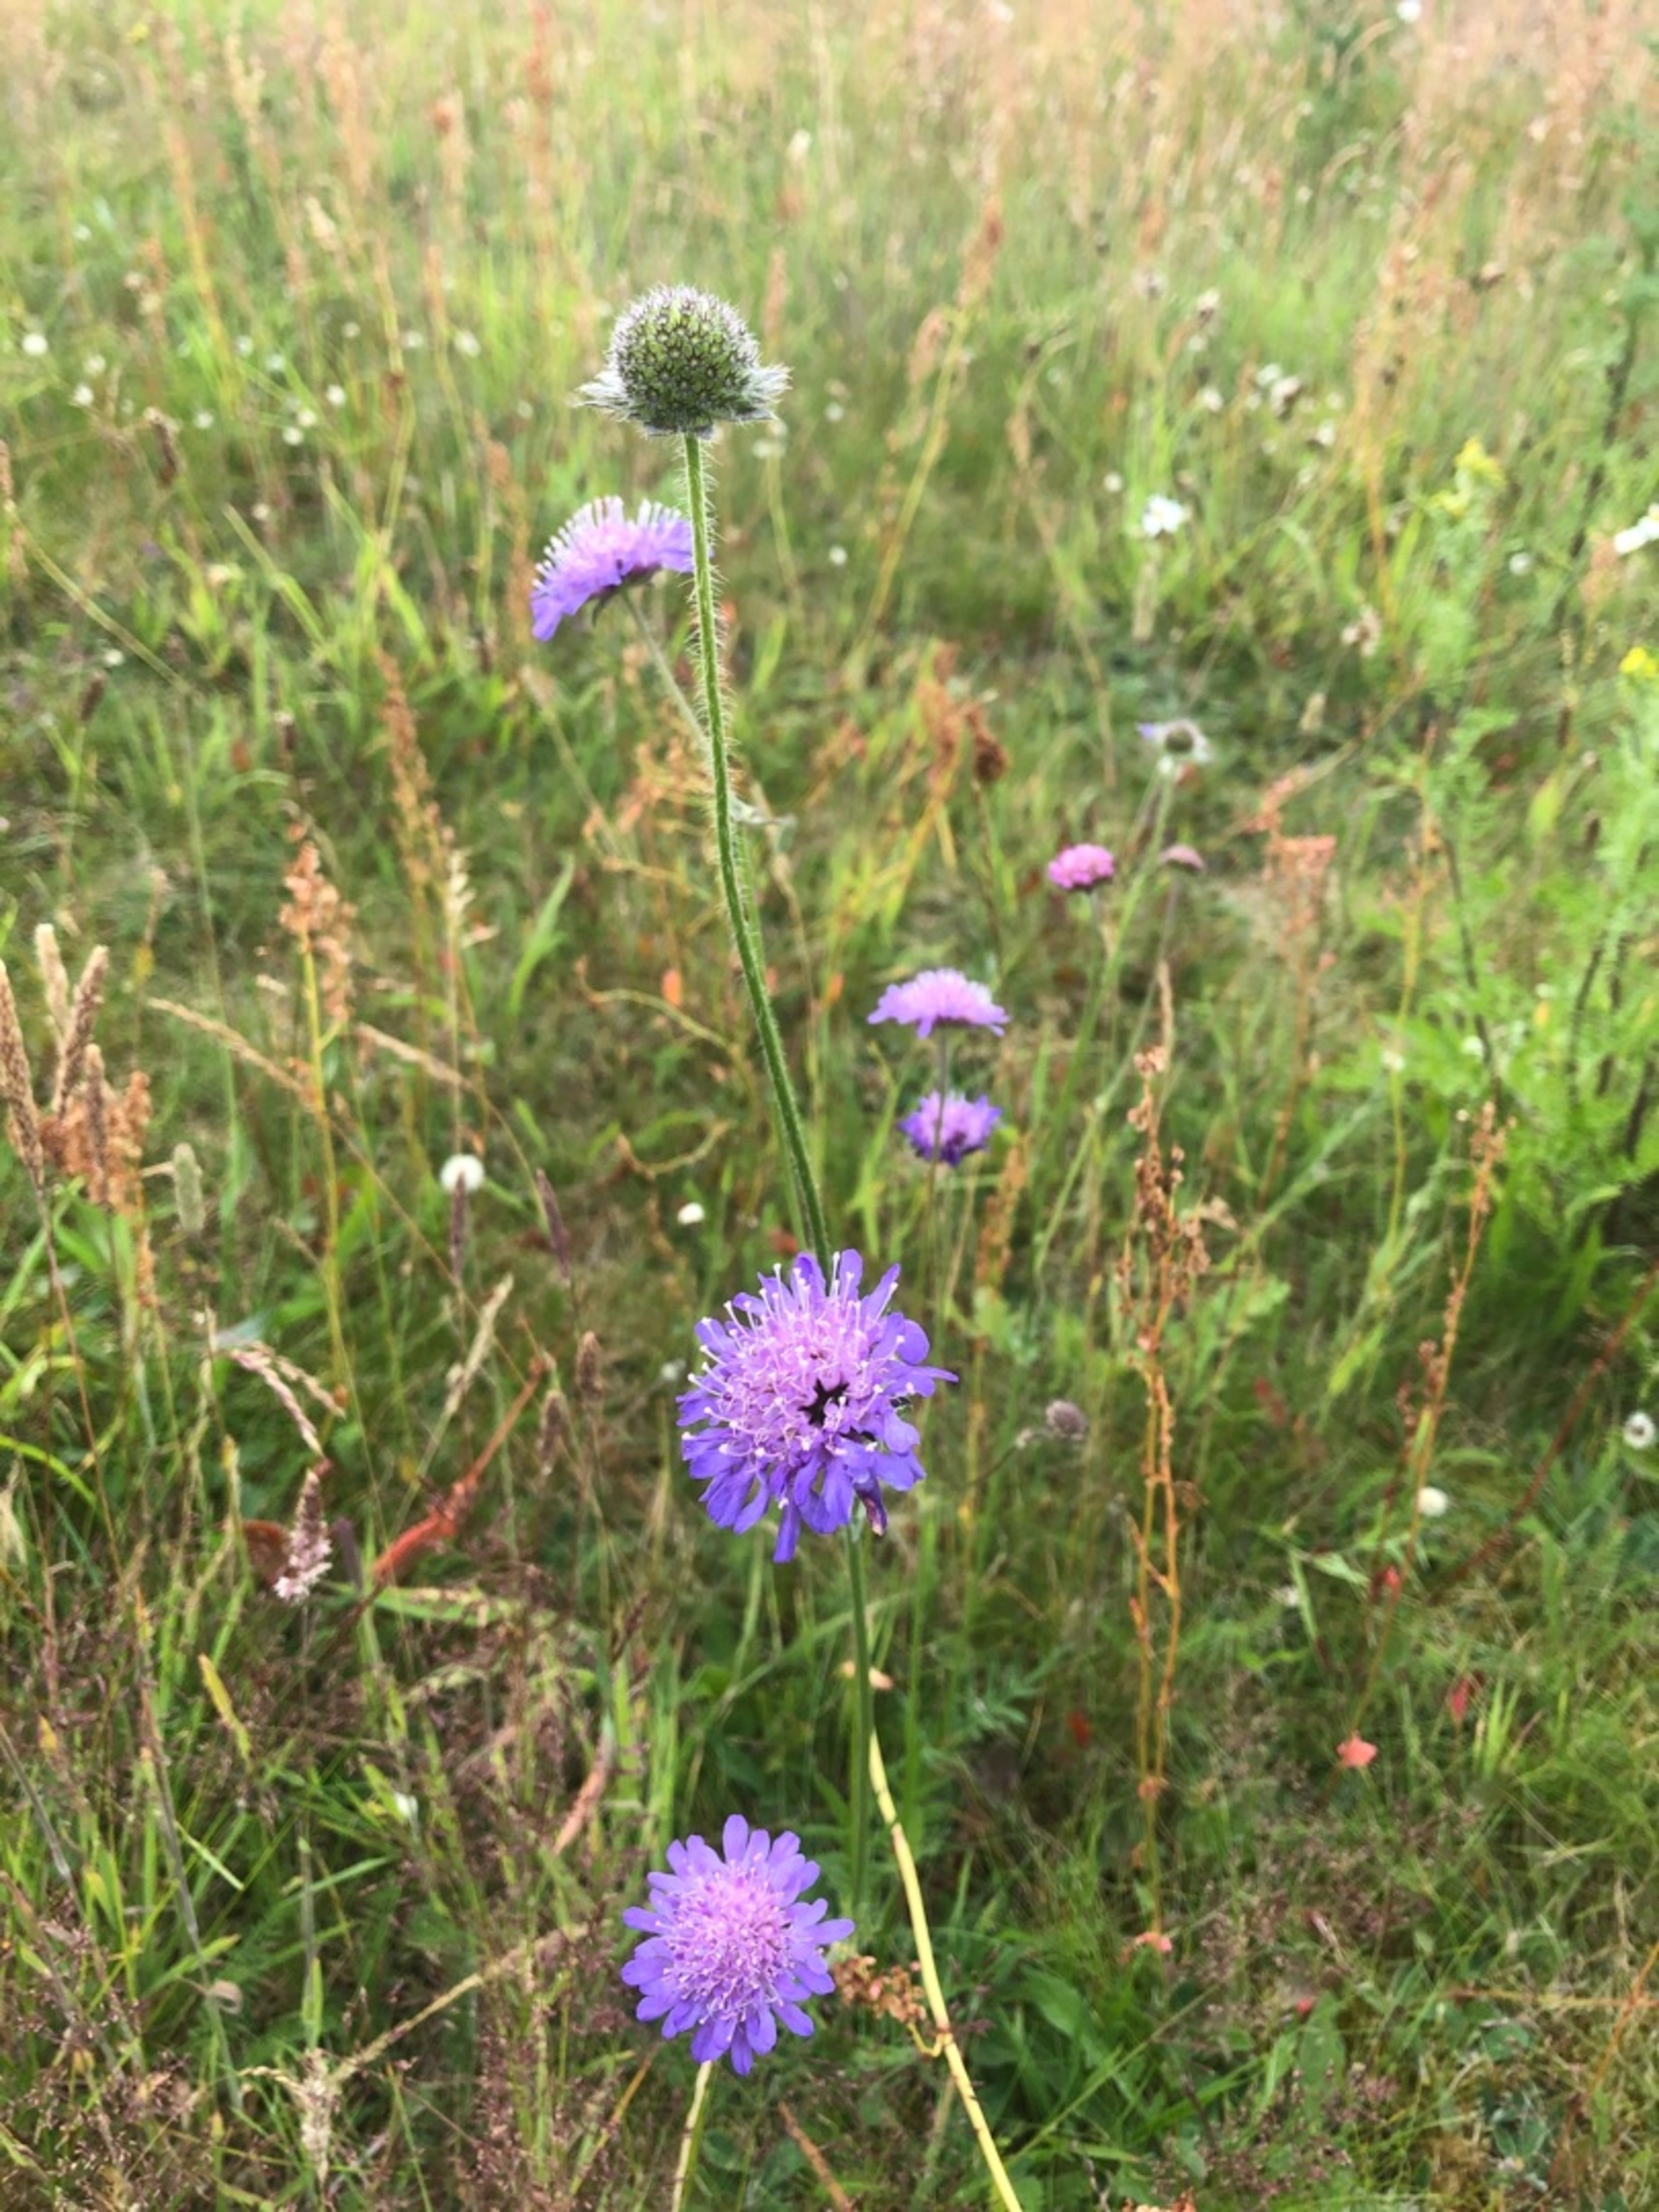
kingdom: Plantae
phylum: Tracheophyta
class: Magnoliopsida
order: Dipsacales
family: Caprifoliaceae
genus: Knautia
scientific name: Knautia arvensis
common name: Blåhat
